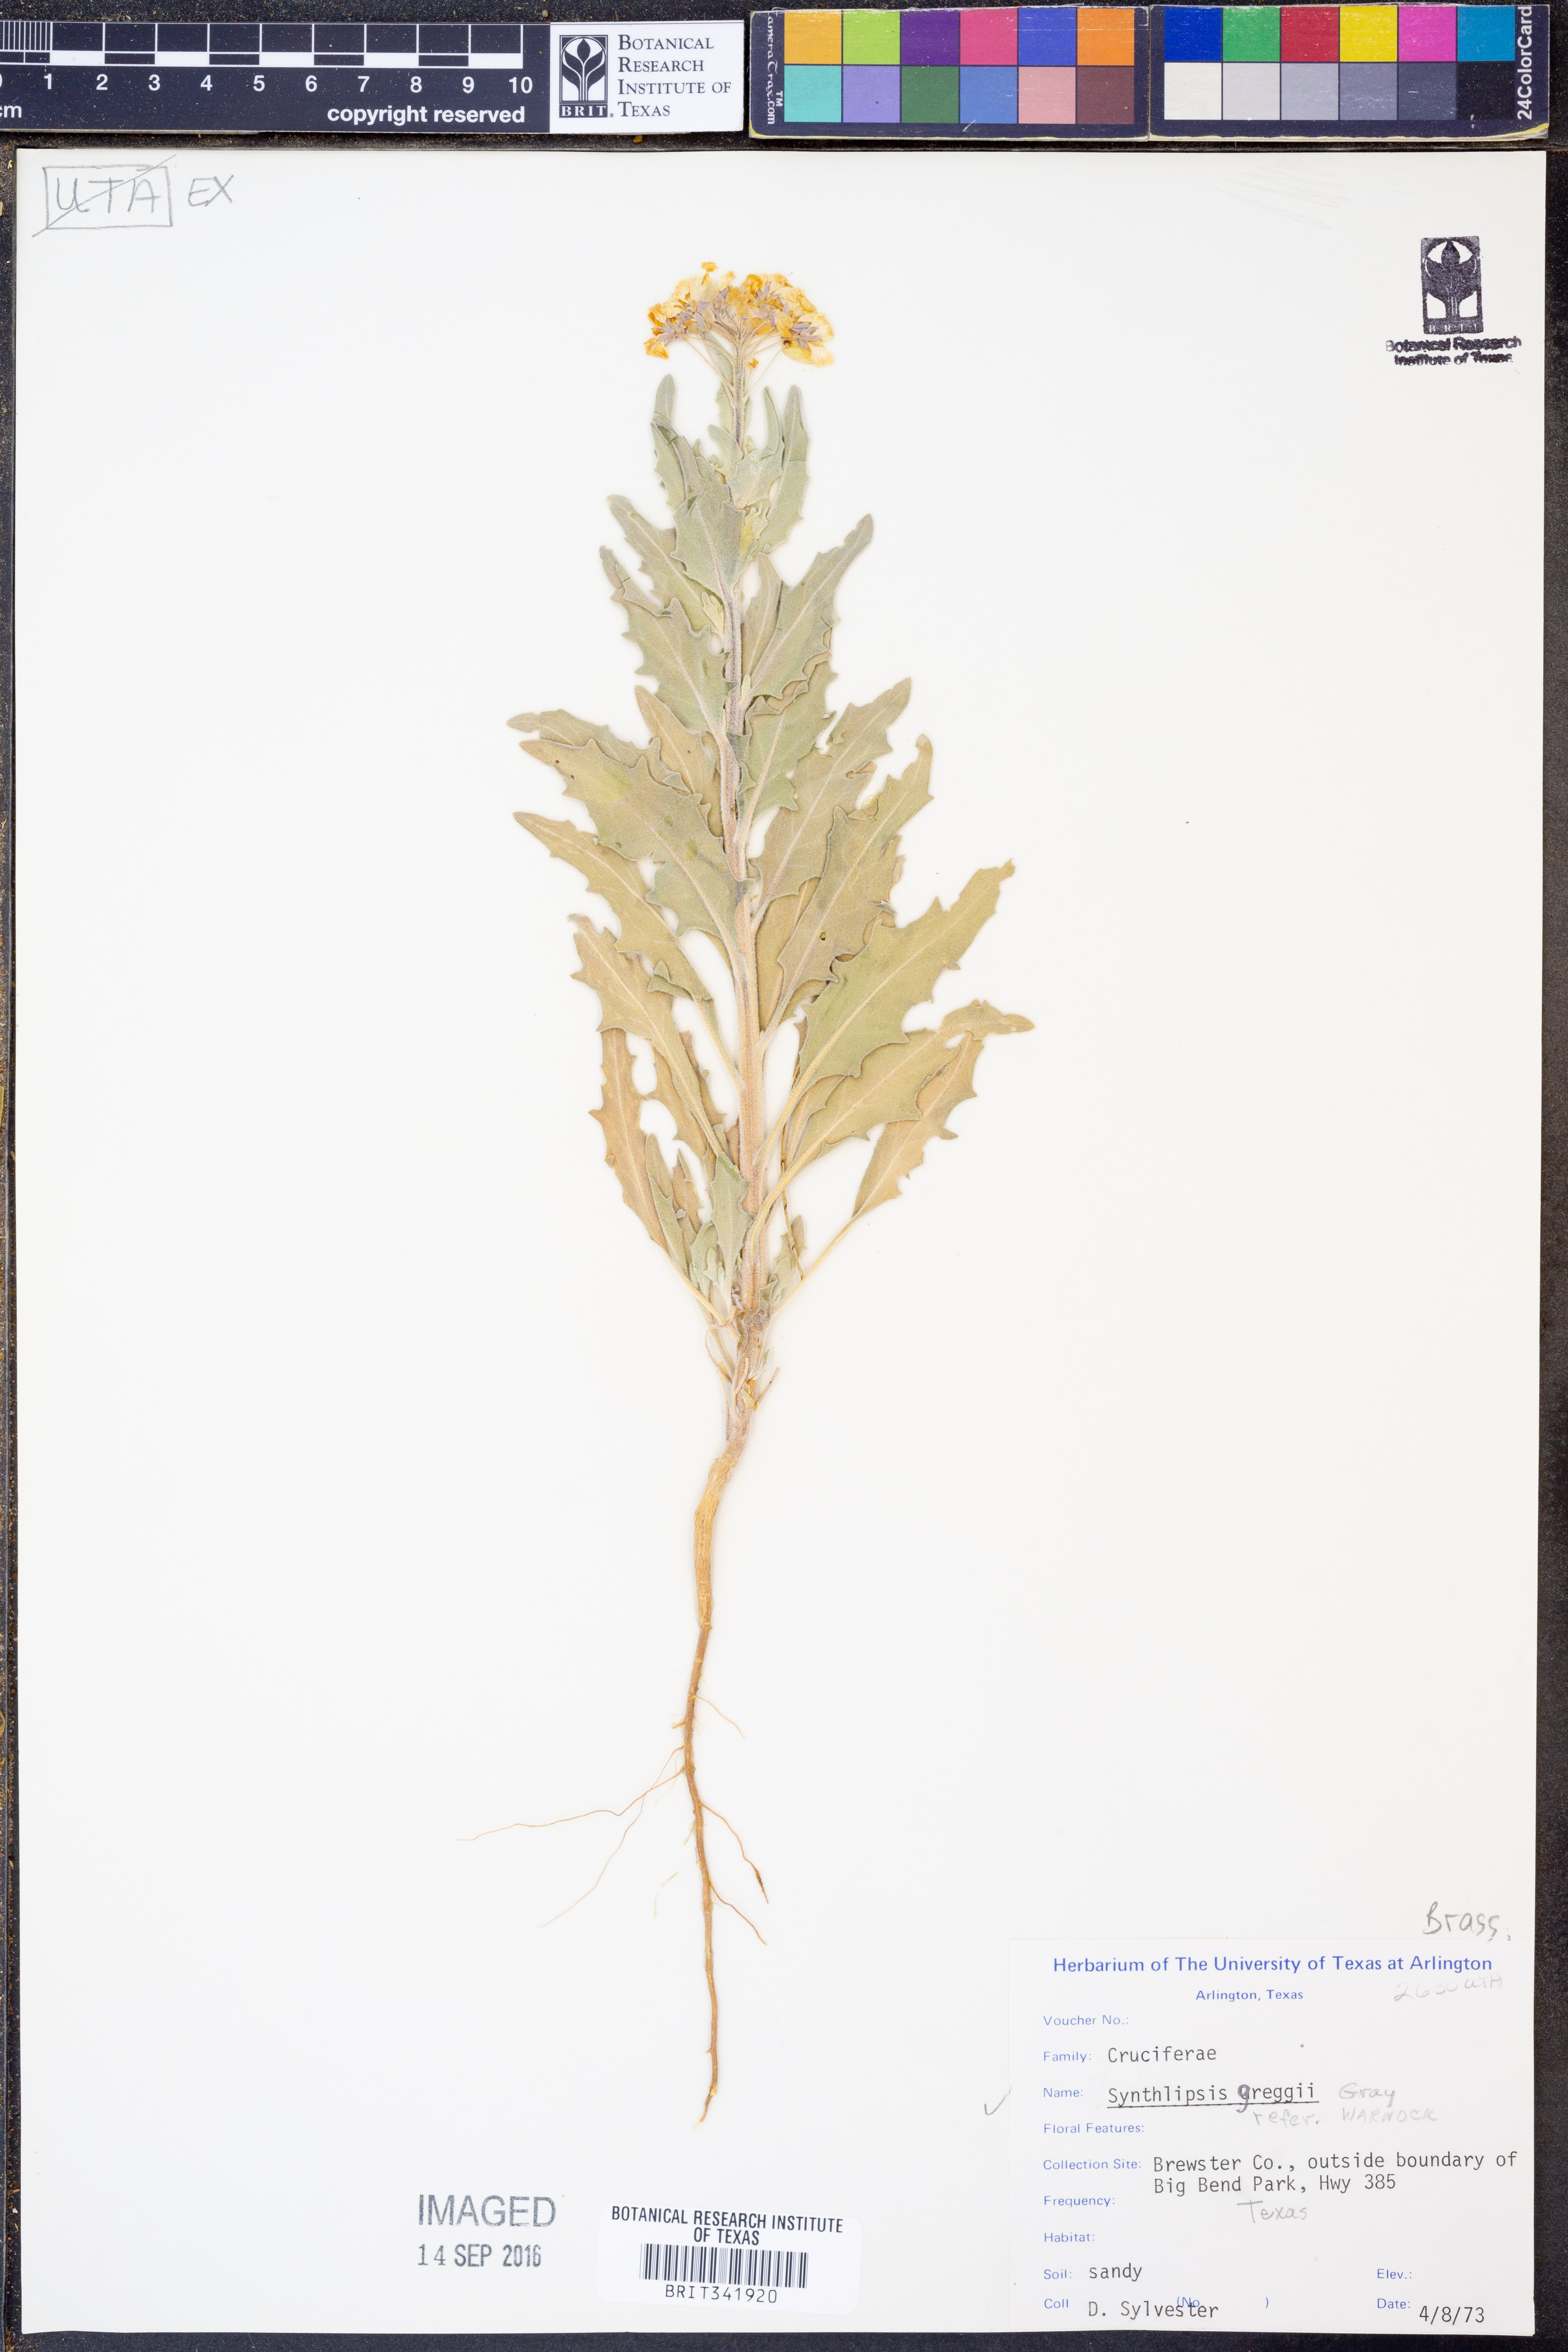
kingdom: Plantae
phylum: Tracheophyta
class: Magnoliopsida
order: Brassicales
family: Brassicaceae
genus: Synthlipsis
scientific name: Synthlipsis greggii
